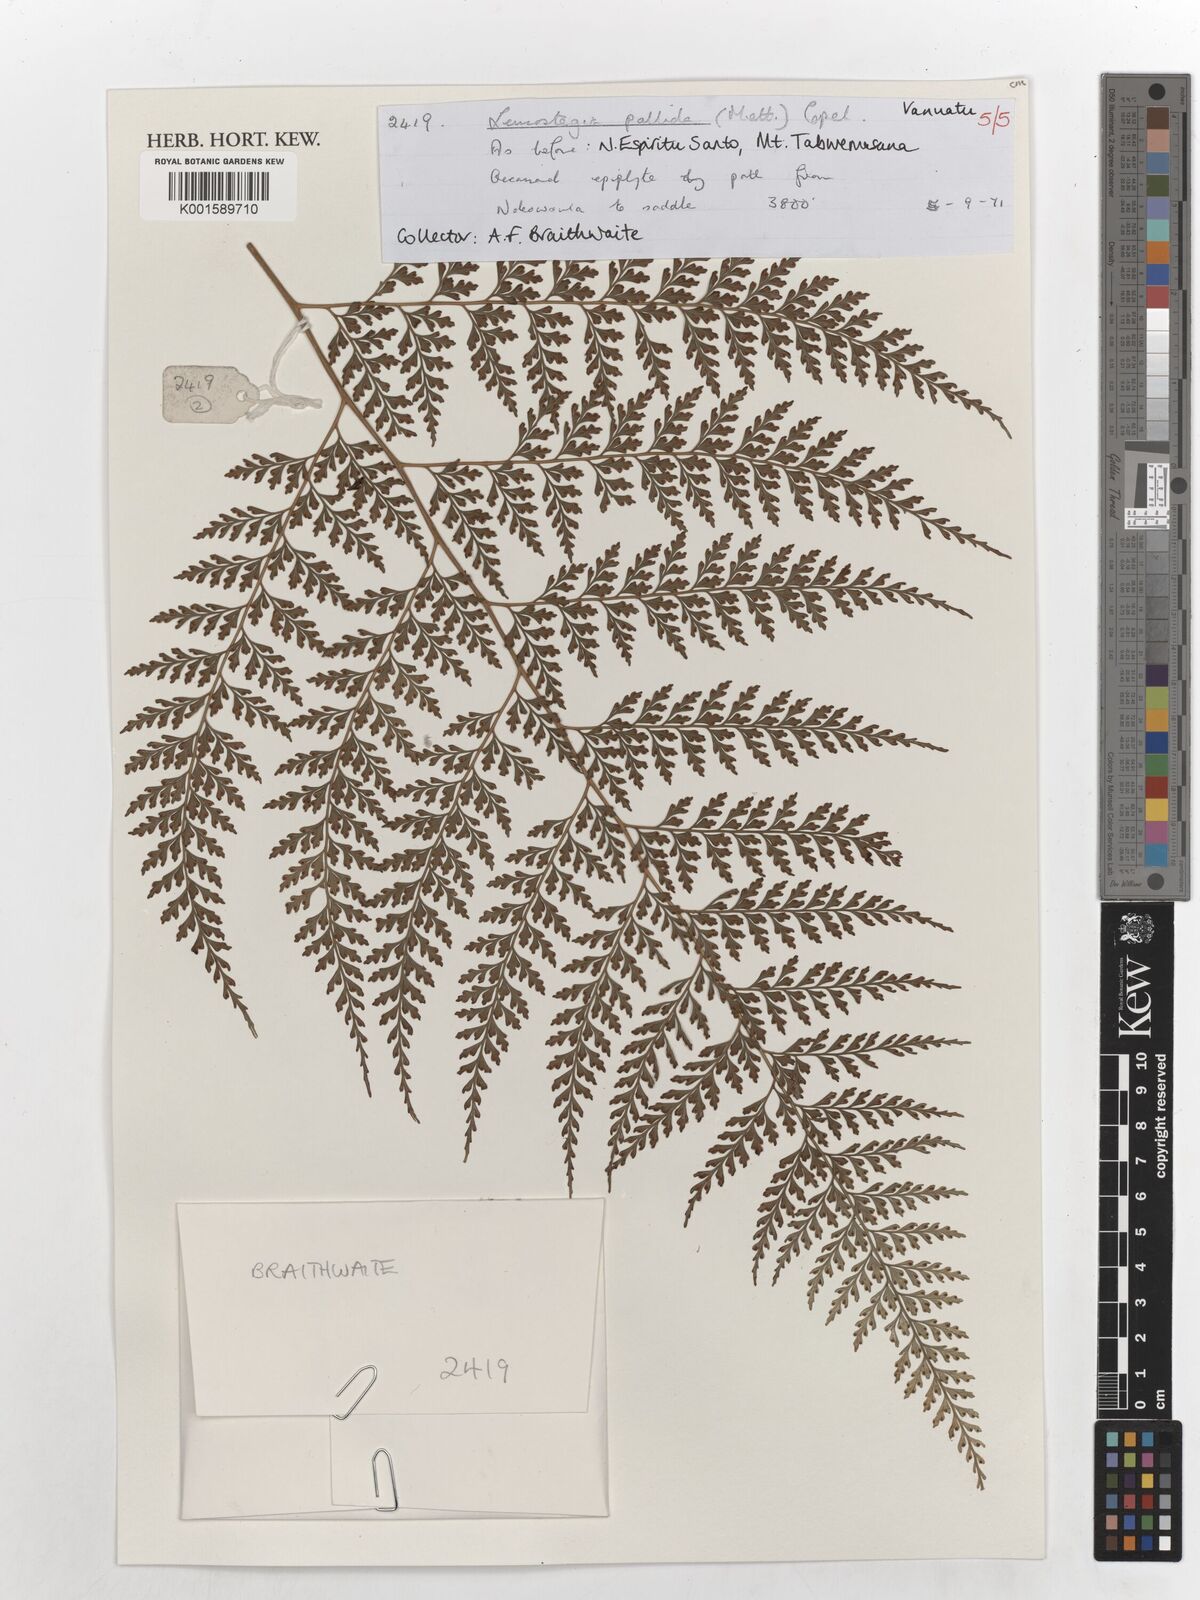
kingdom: Plantae
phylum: Tracheophyta
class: Polypodiopsida
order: Polypodiales
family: Hypodematiaceae
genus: Leucostegia
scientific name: Leucostegia pallida
